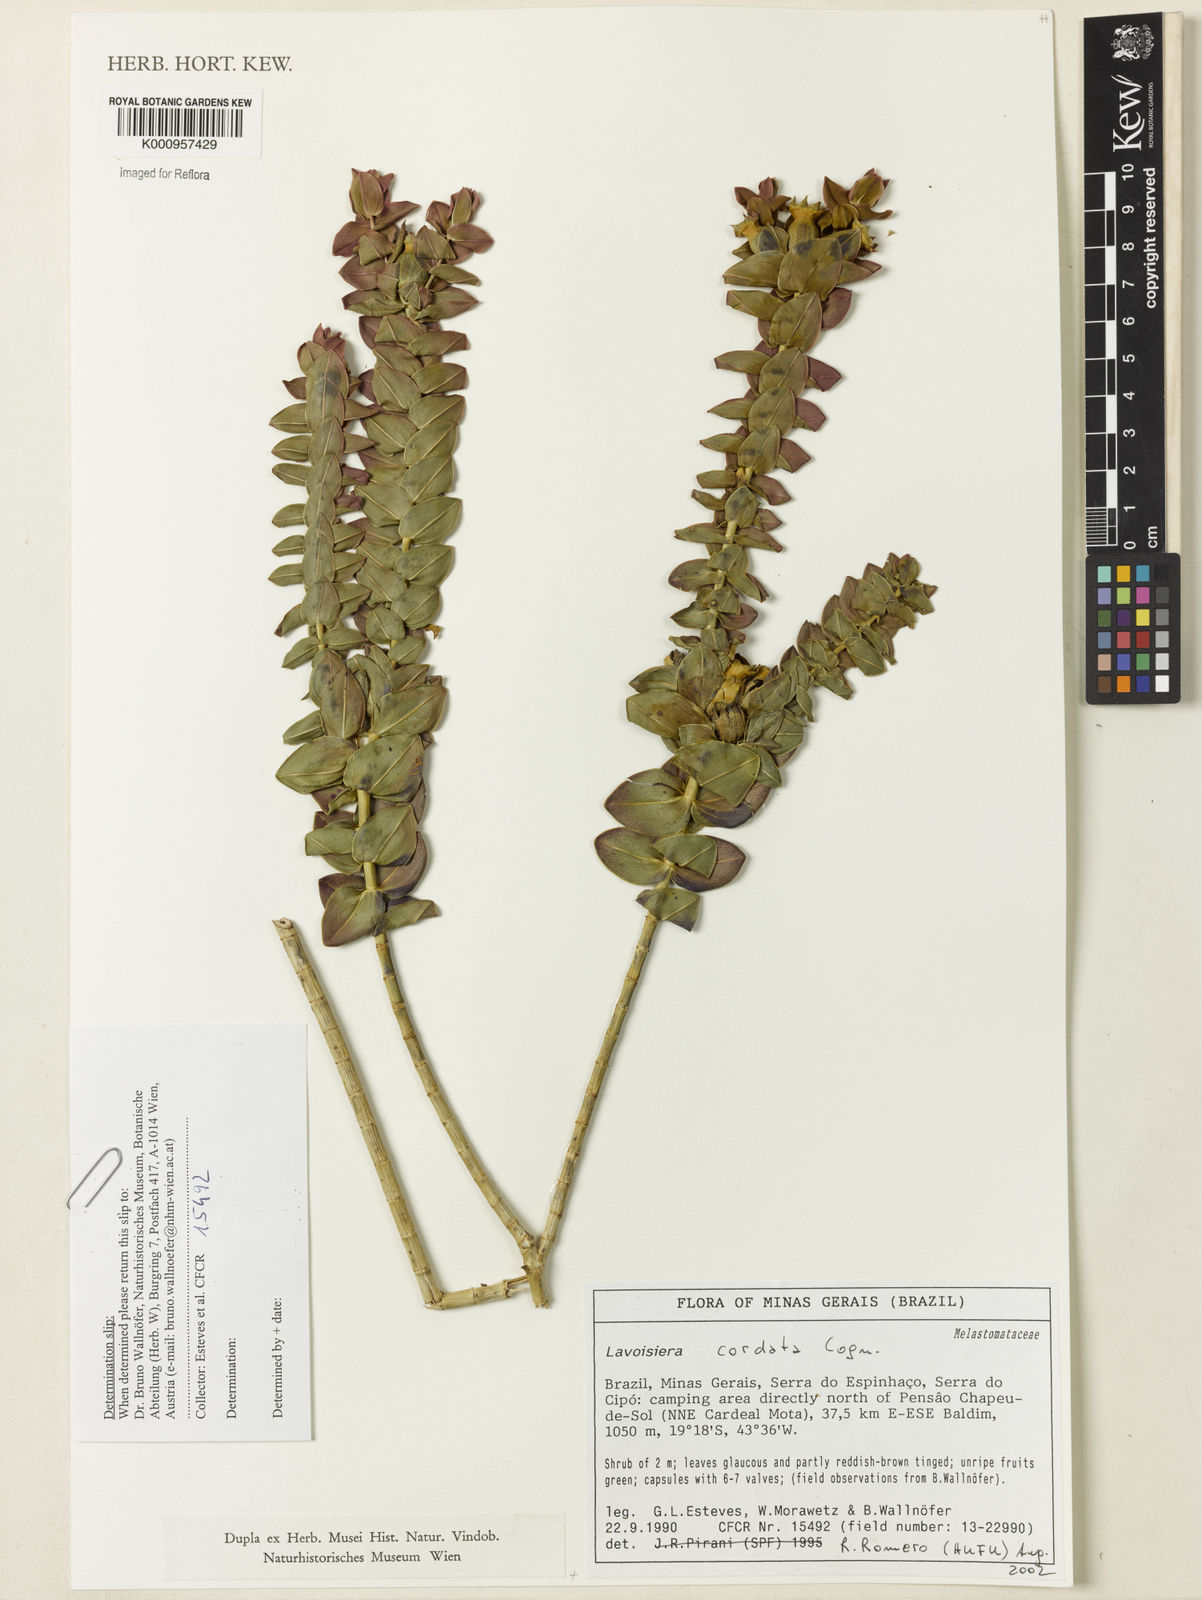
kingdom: Plantae
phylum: Tracheophyta
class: Magnoliopsida
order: Myrtales
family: Melastomataceae
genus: Microlicia
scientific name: Microlicia cordifolia
